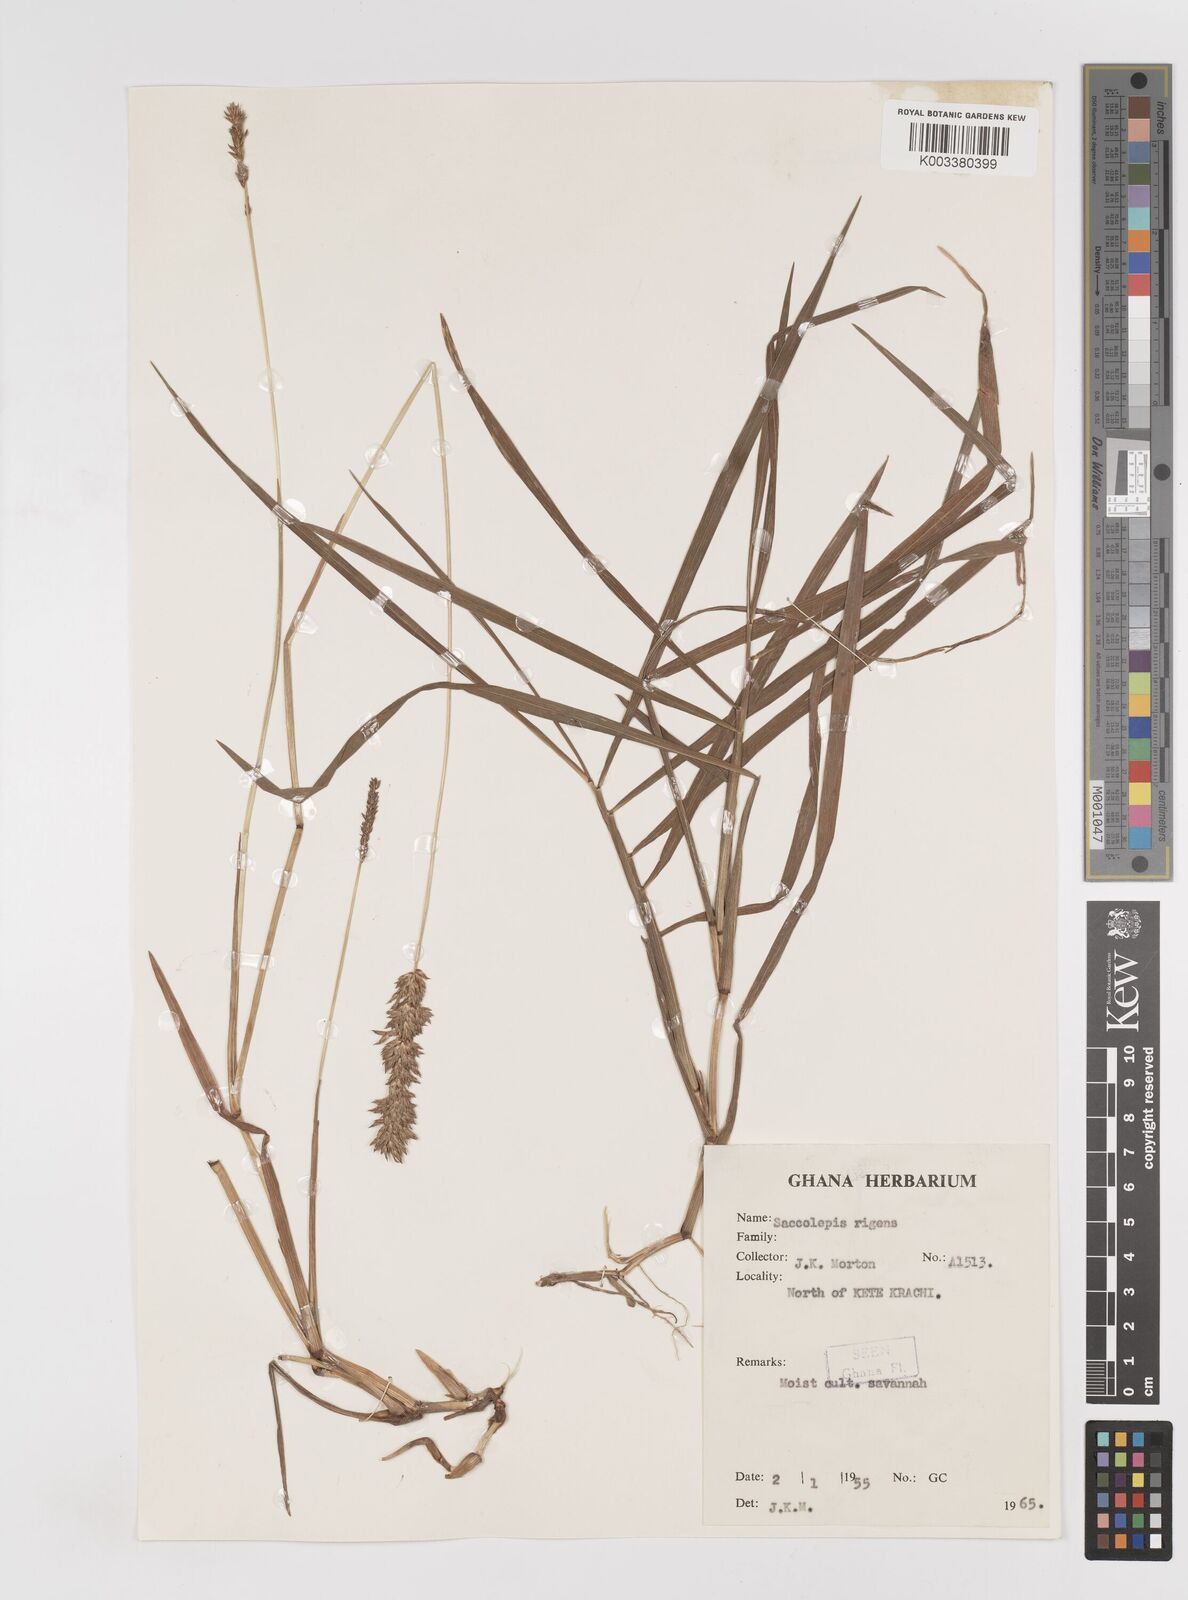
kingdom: Plantae
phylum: Tracheophyta
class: Liliopsida
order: Poales
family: Poaceae
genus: Sacciolepis
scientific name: Sacciolepis leptorrhachis
